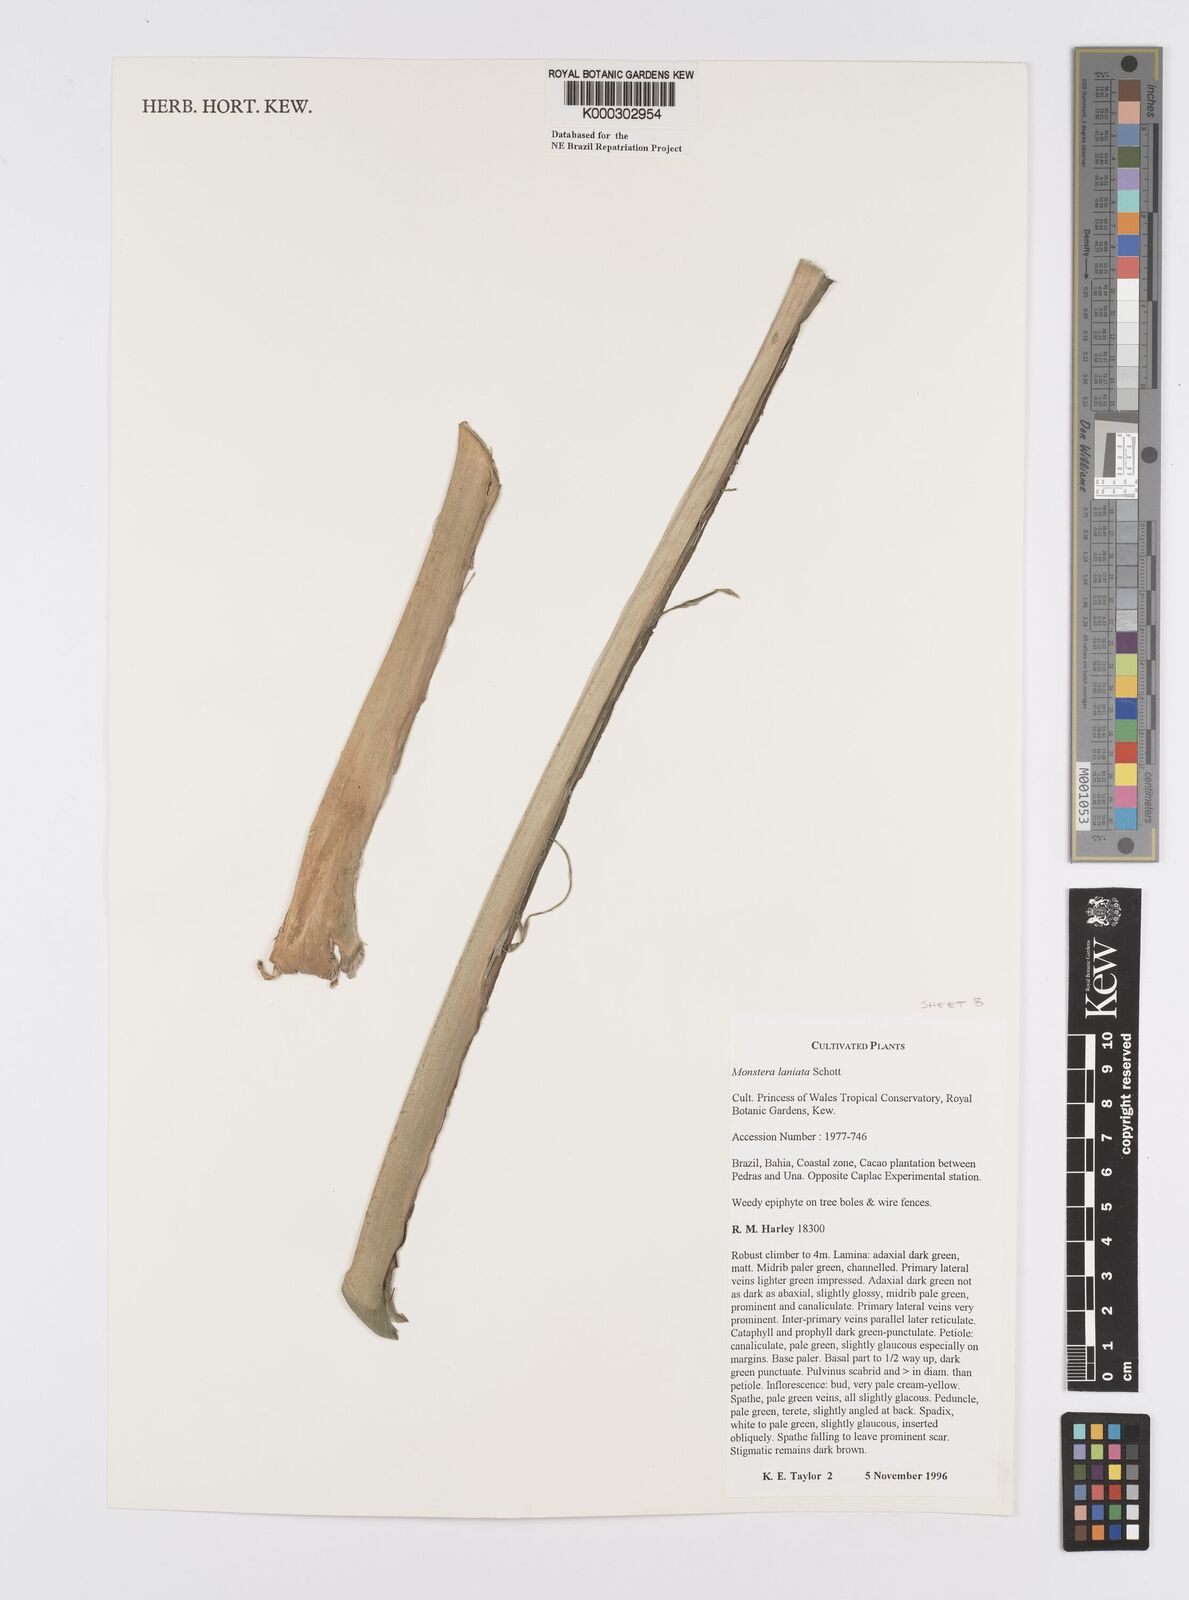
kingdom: Plantae
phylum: Tracheophyta
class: Liliopsida
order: Alismatales
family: Araceae
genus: Monstera
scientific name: Monstera adansonii
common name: Tarovine
